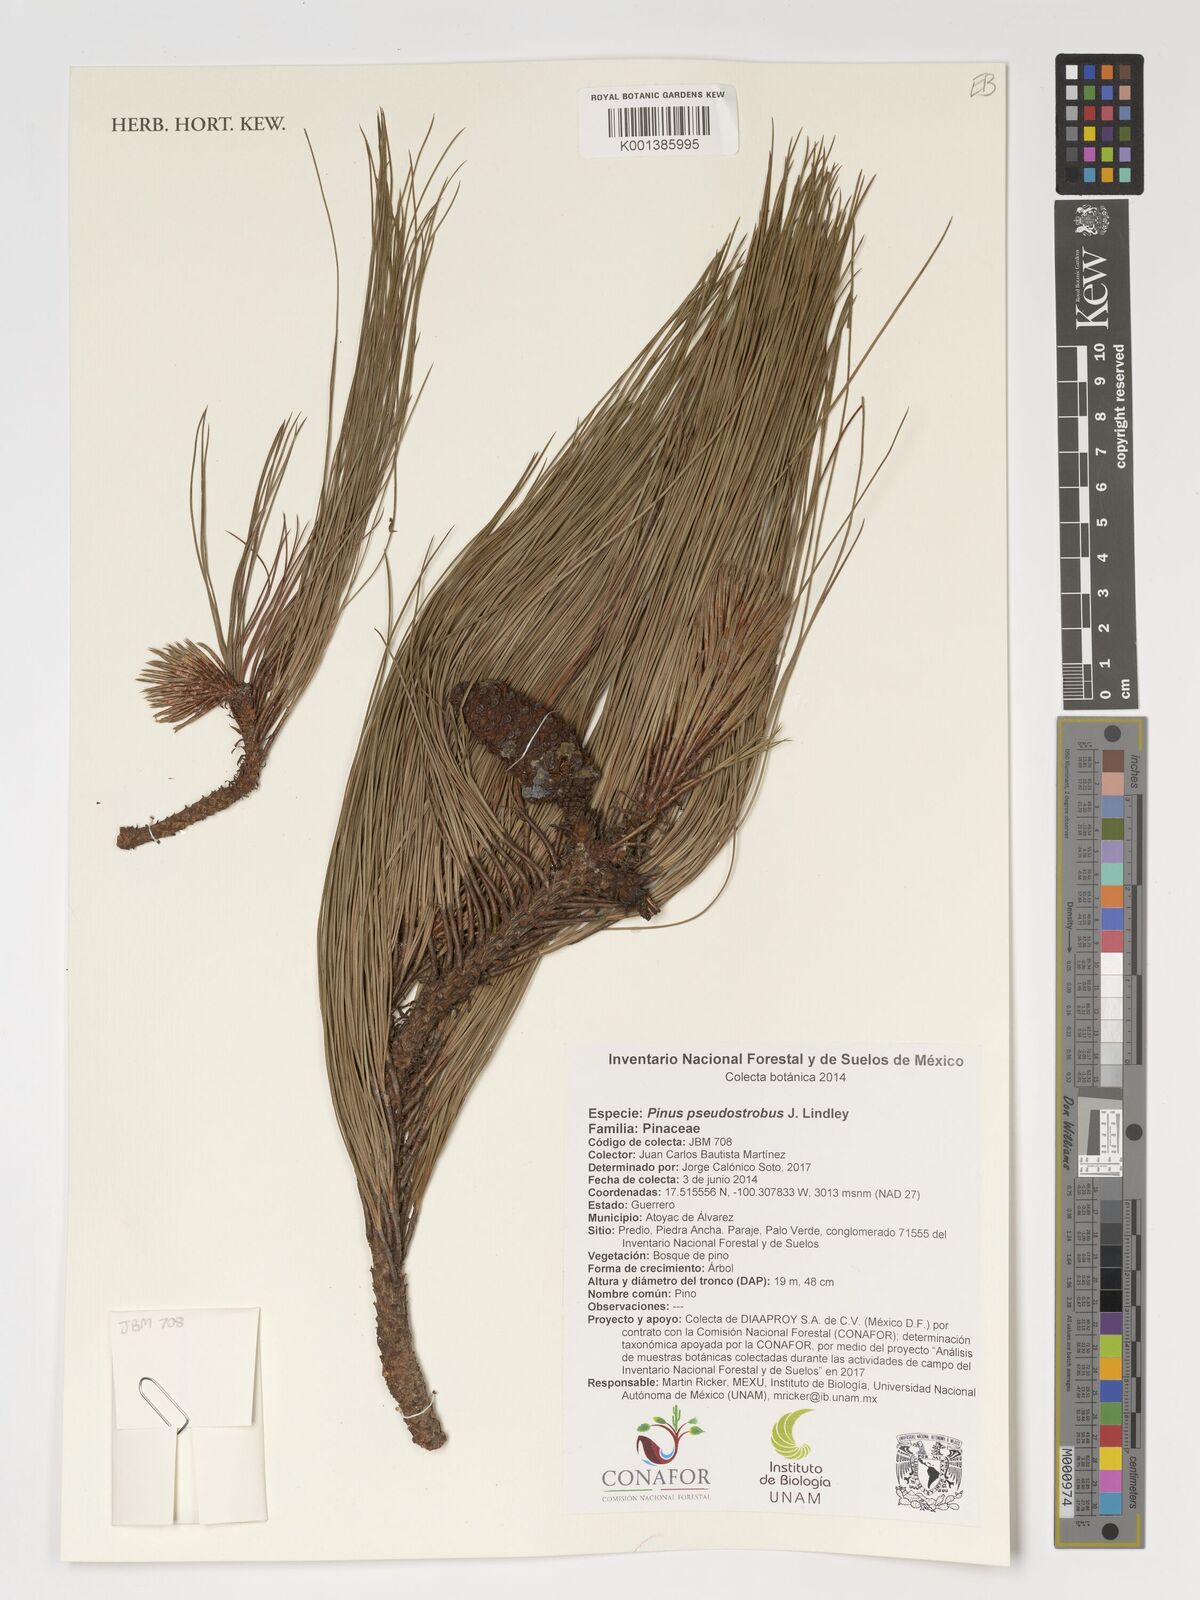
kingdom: Plantae
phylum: Tracheophyta
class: Pinopsida
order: Pinales
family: Pinaceae
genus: Pinus
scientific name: Pinus pseudostrobus
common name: False weymouth pine
